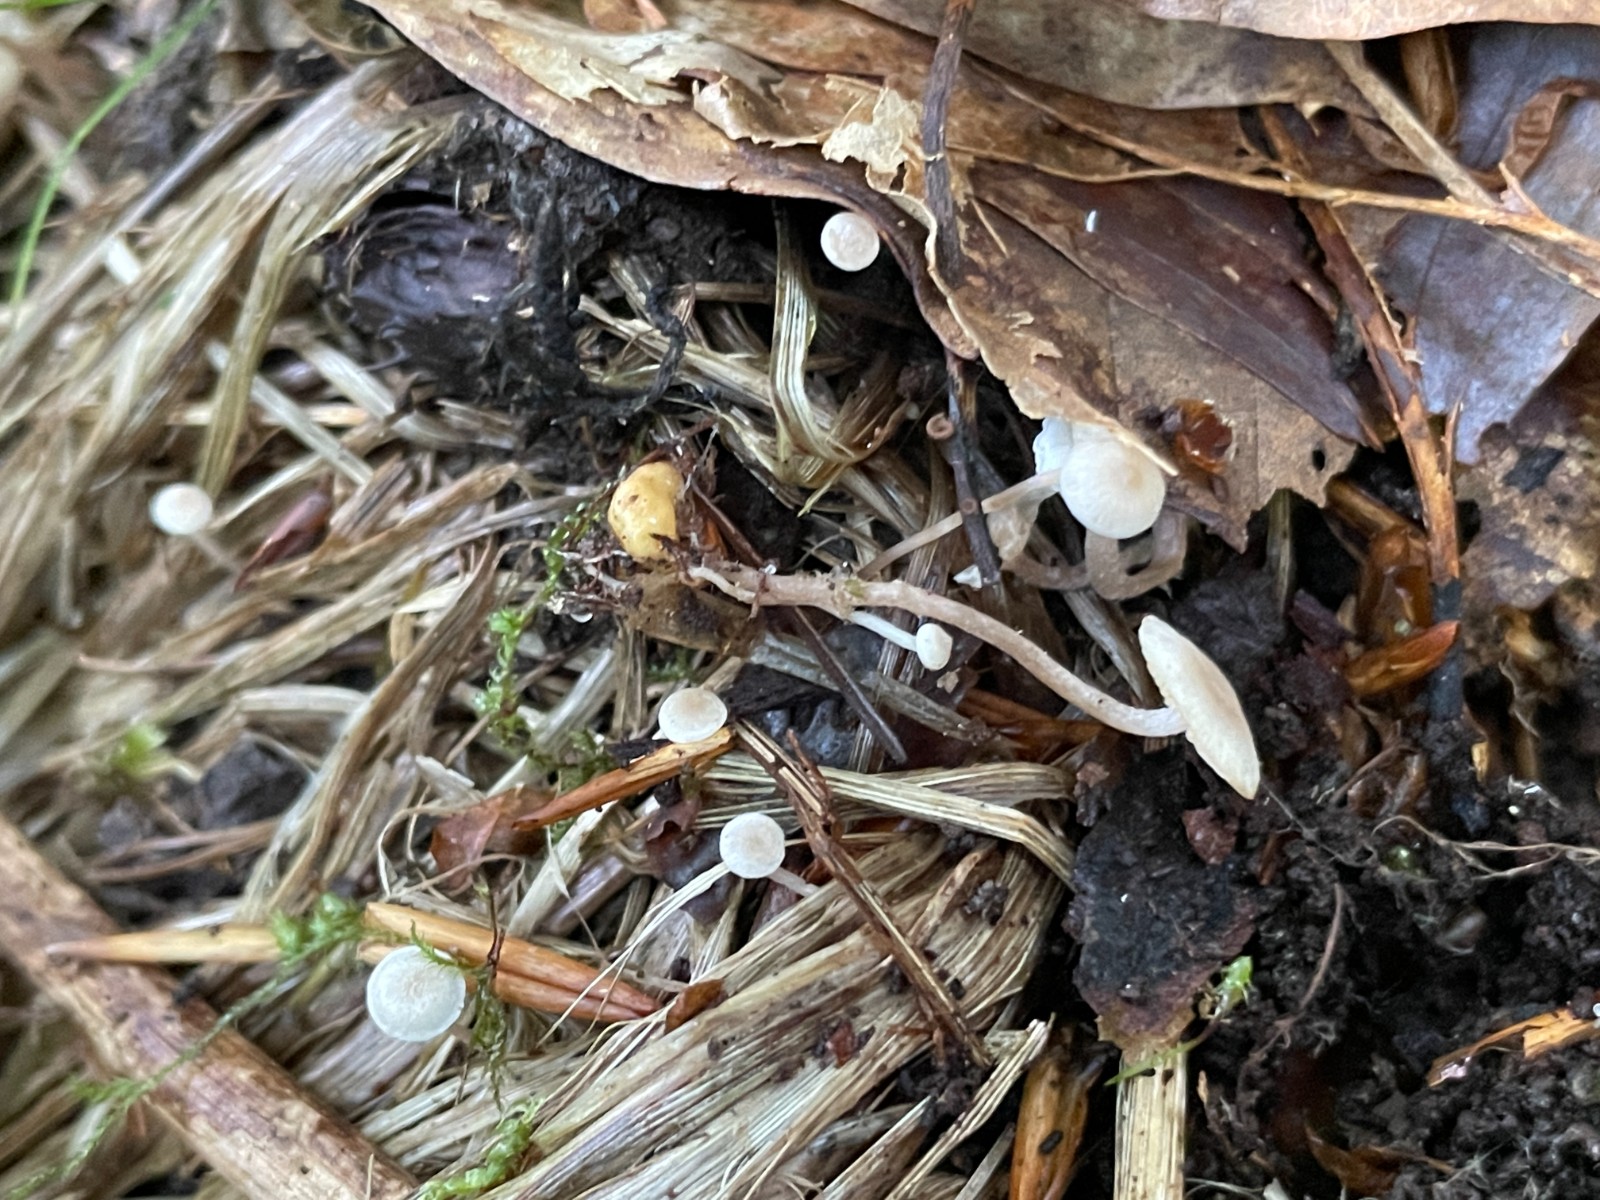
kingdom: Fungi
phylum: Basidiomycota
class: Agaricomycetes
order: Agaricales
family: Tricholomataceae
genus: Collybia
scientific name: Collybia cookei
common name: gulknoldet lighat
